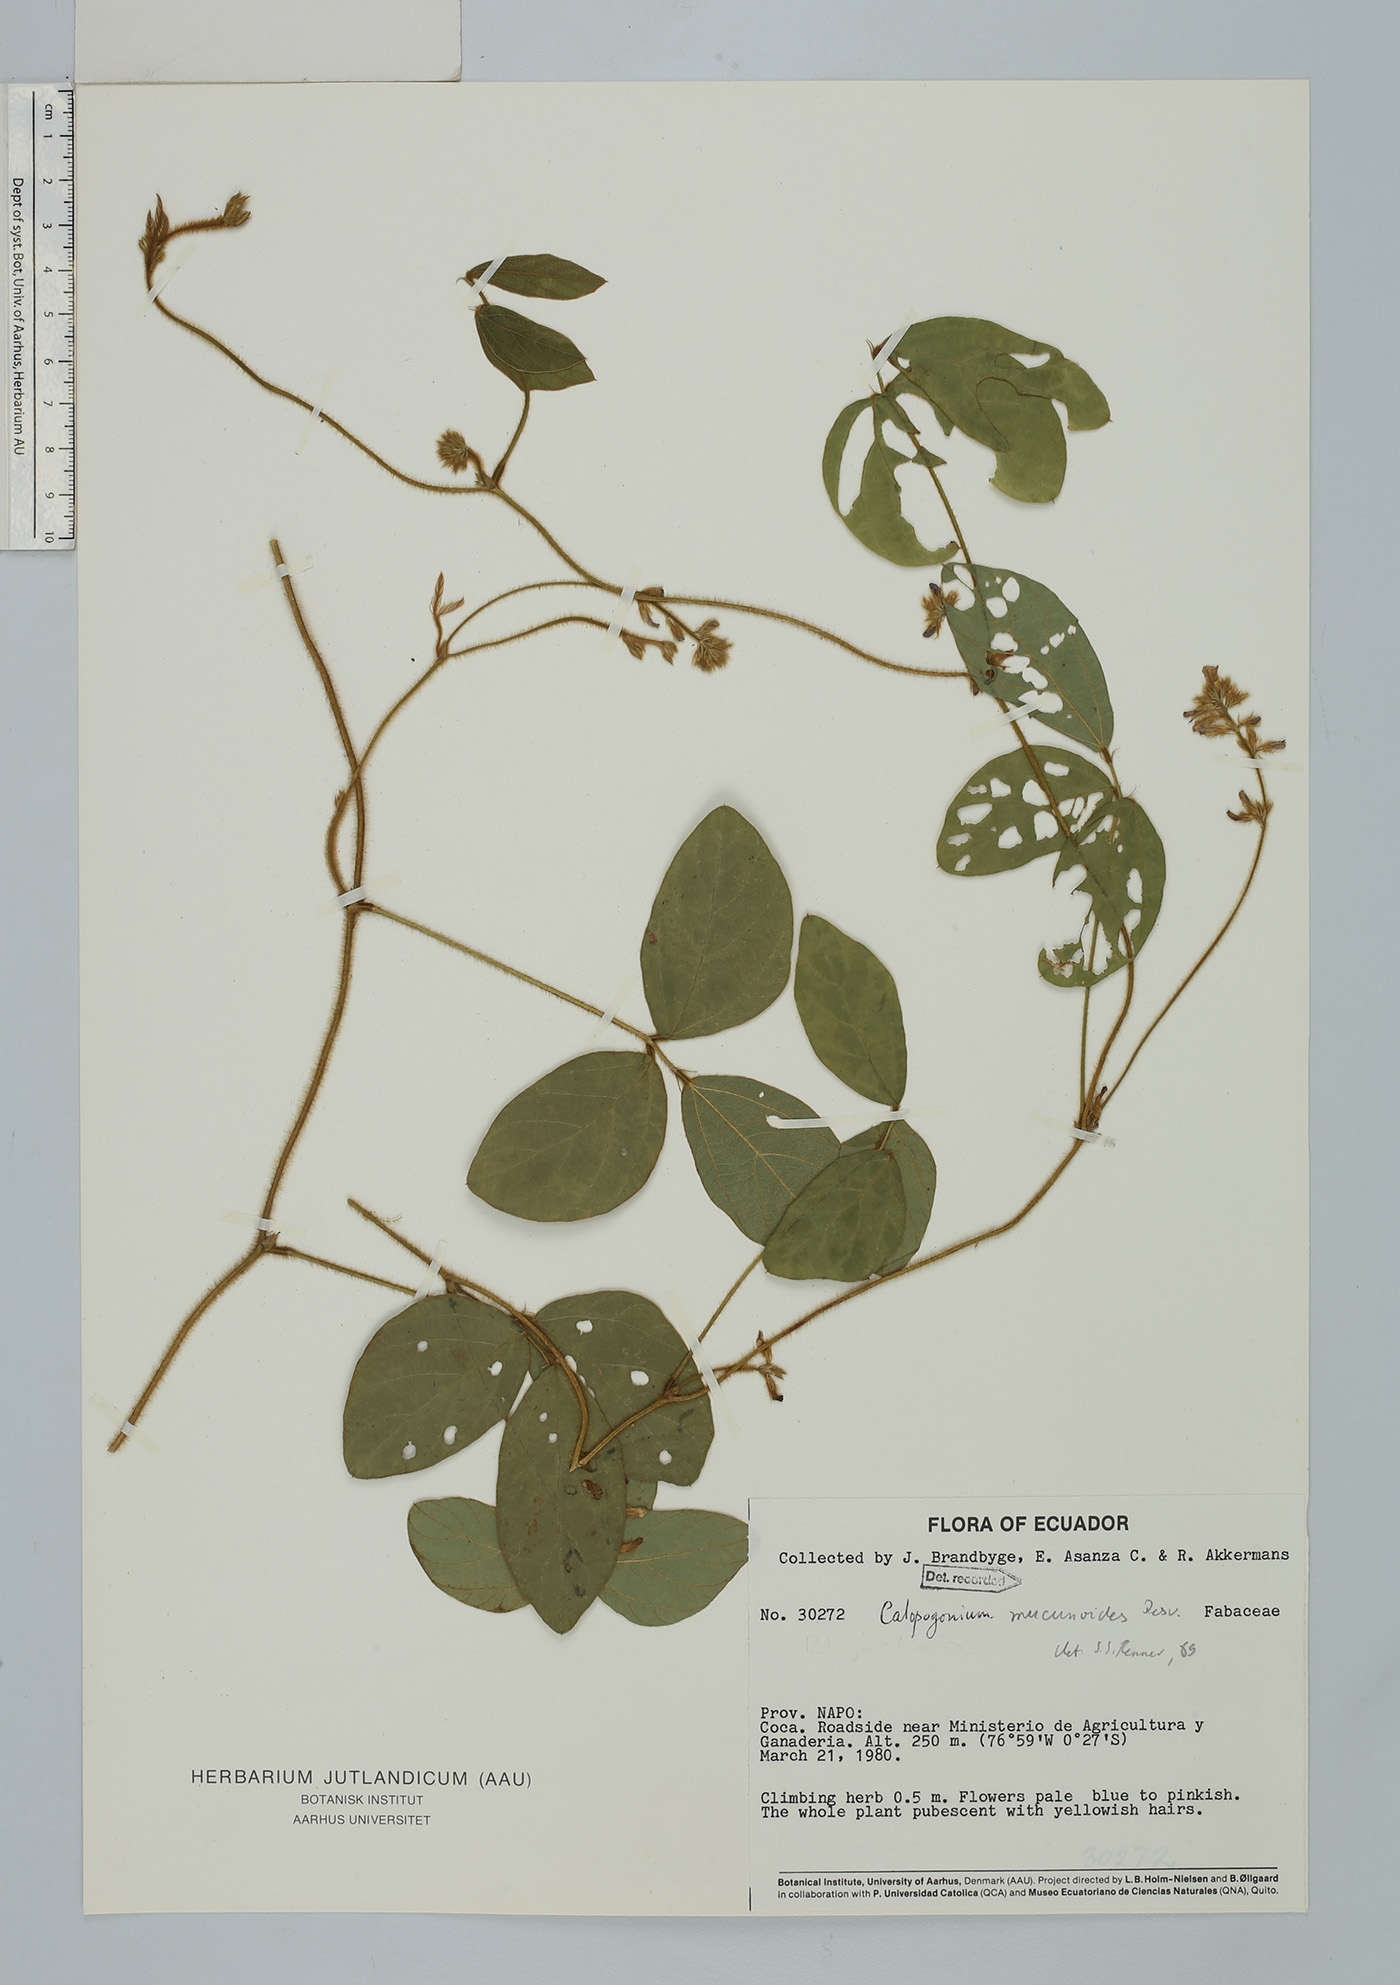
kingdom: Plantae
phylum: Tracheophyta
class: Magnoliopsida
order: Fabales
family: Fabaceae
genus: Calopogonium
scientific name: Calopogonium mucunoides
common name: Calopo
